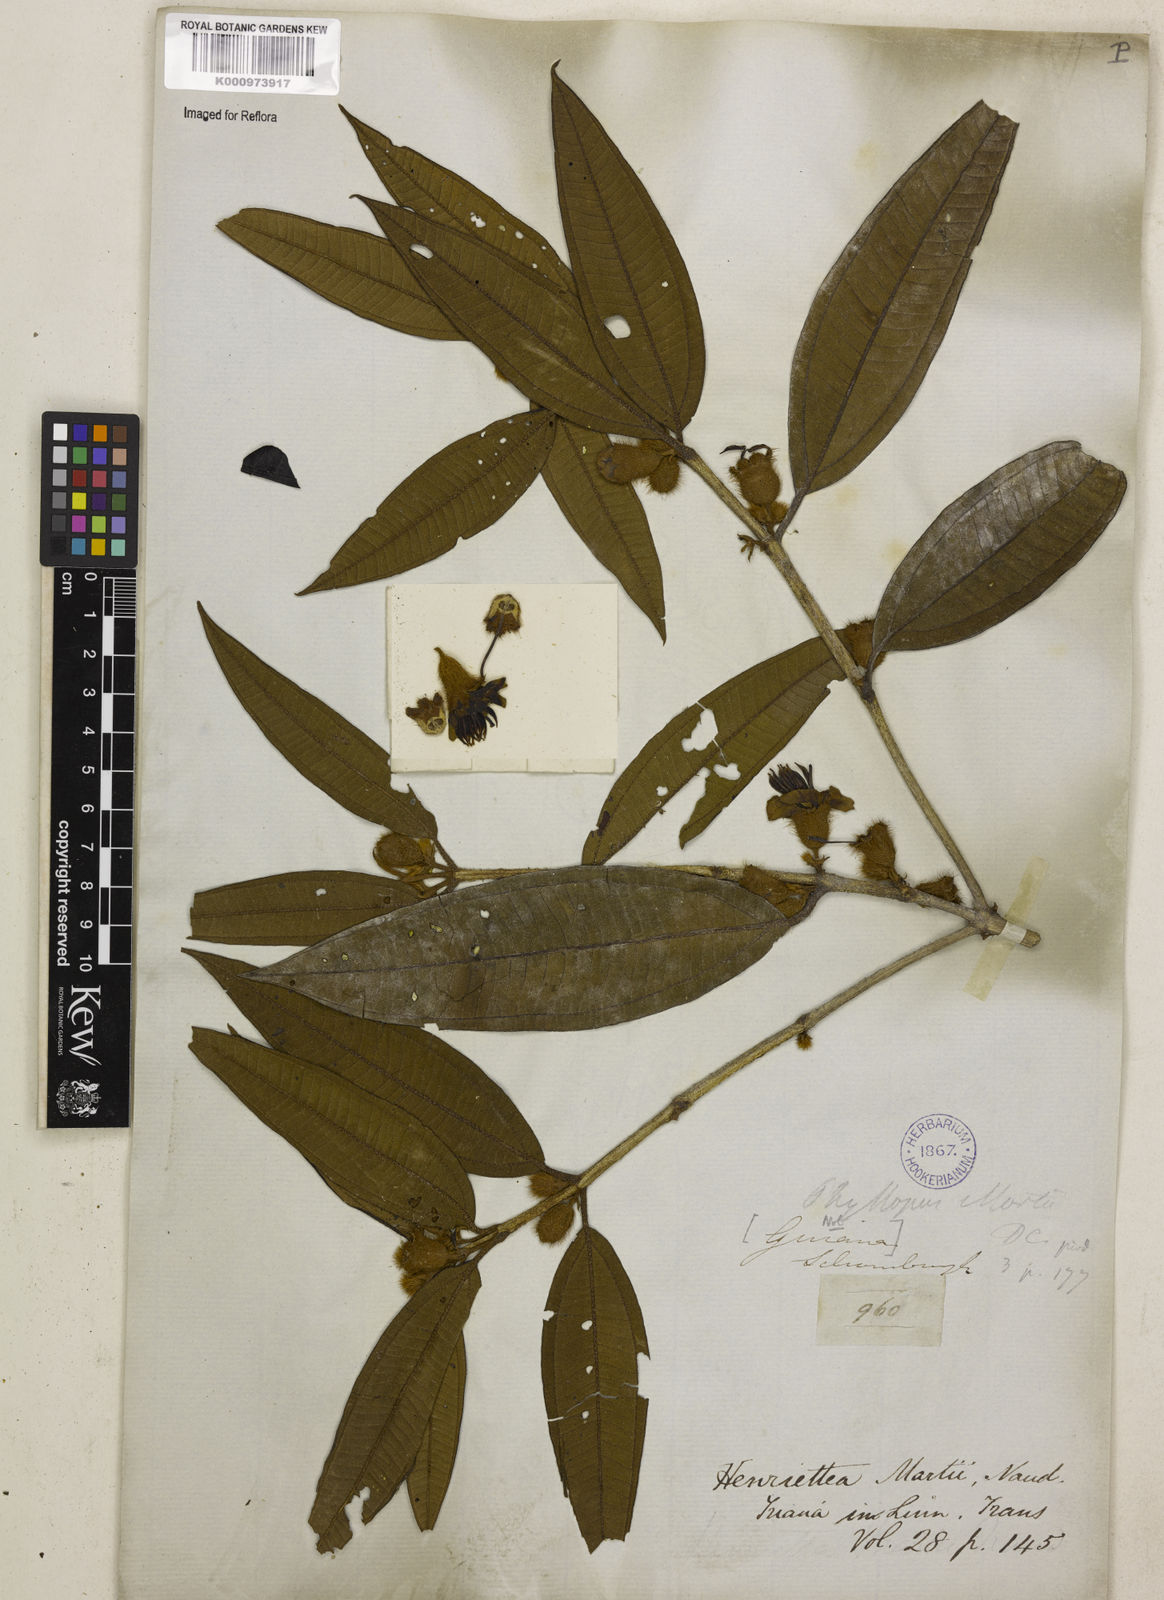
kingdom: Plantae
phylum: Tracheophyta
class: Magnoliopsida
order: Myrtales
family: Melastomataceae
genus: Henriettea
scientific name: Henriettea martiusii
